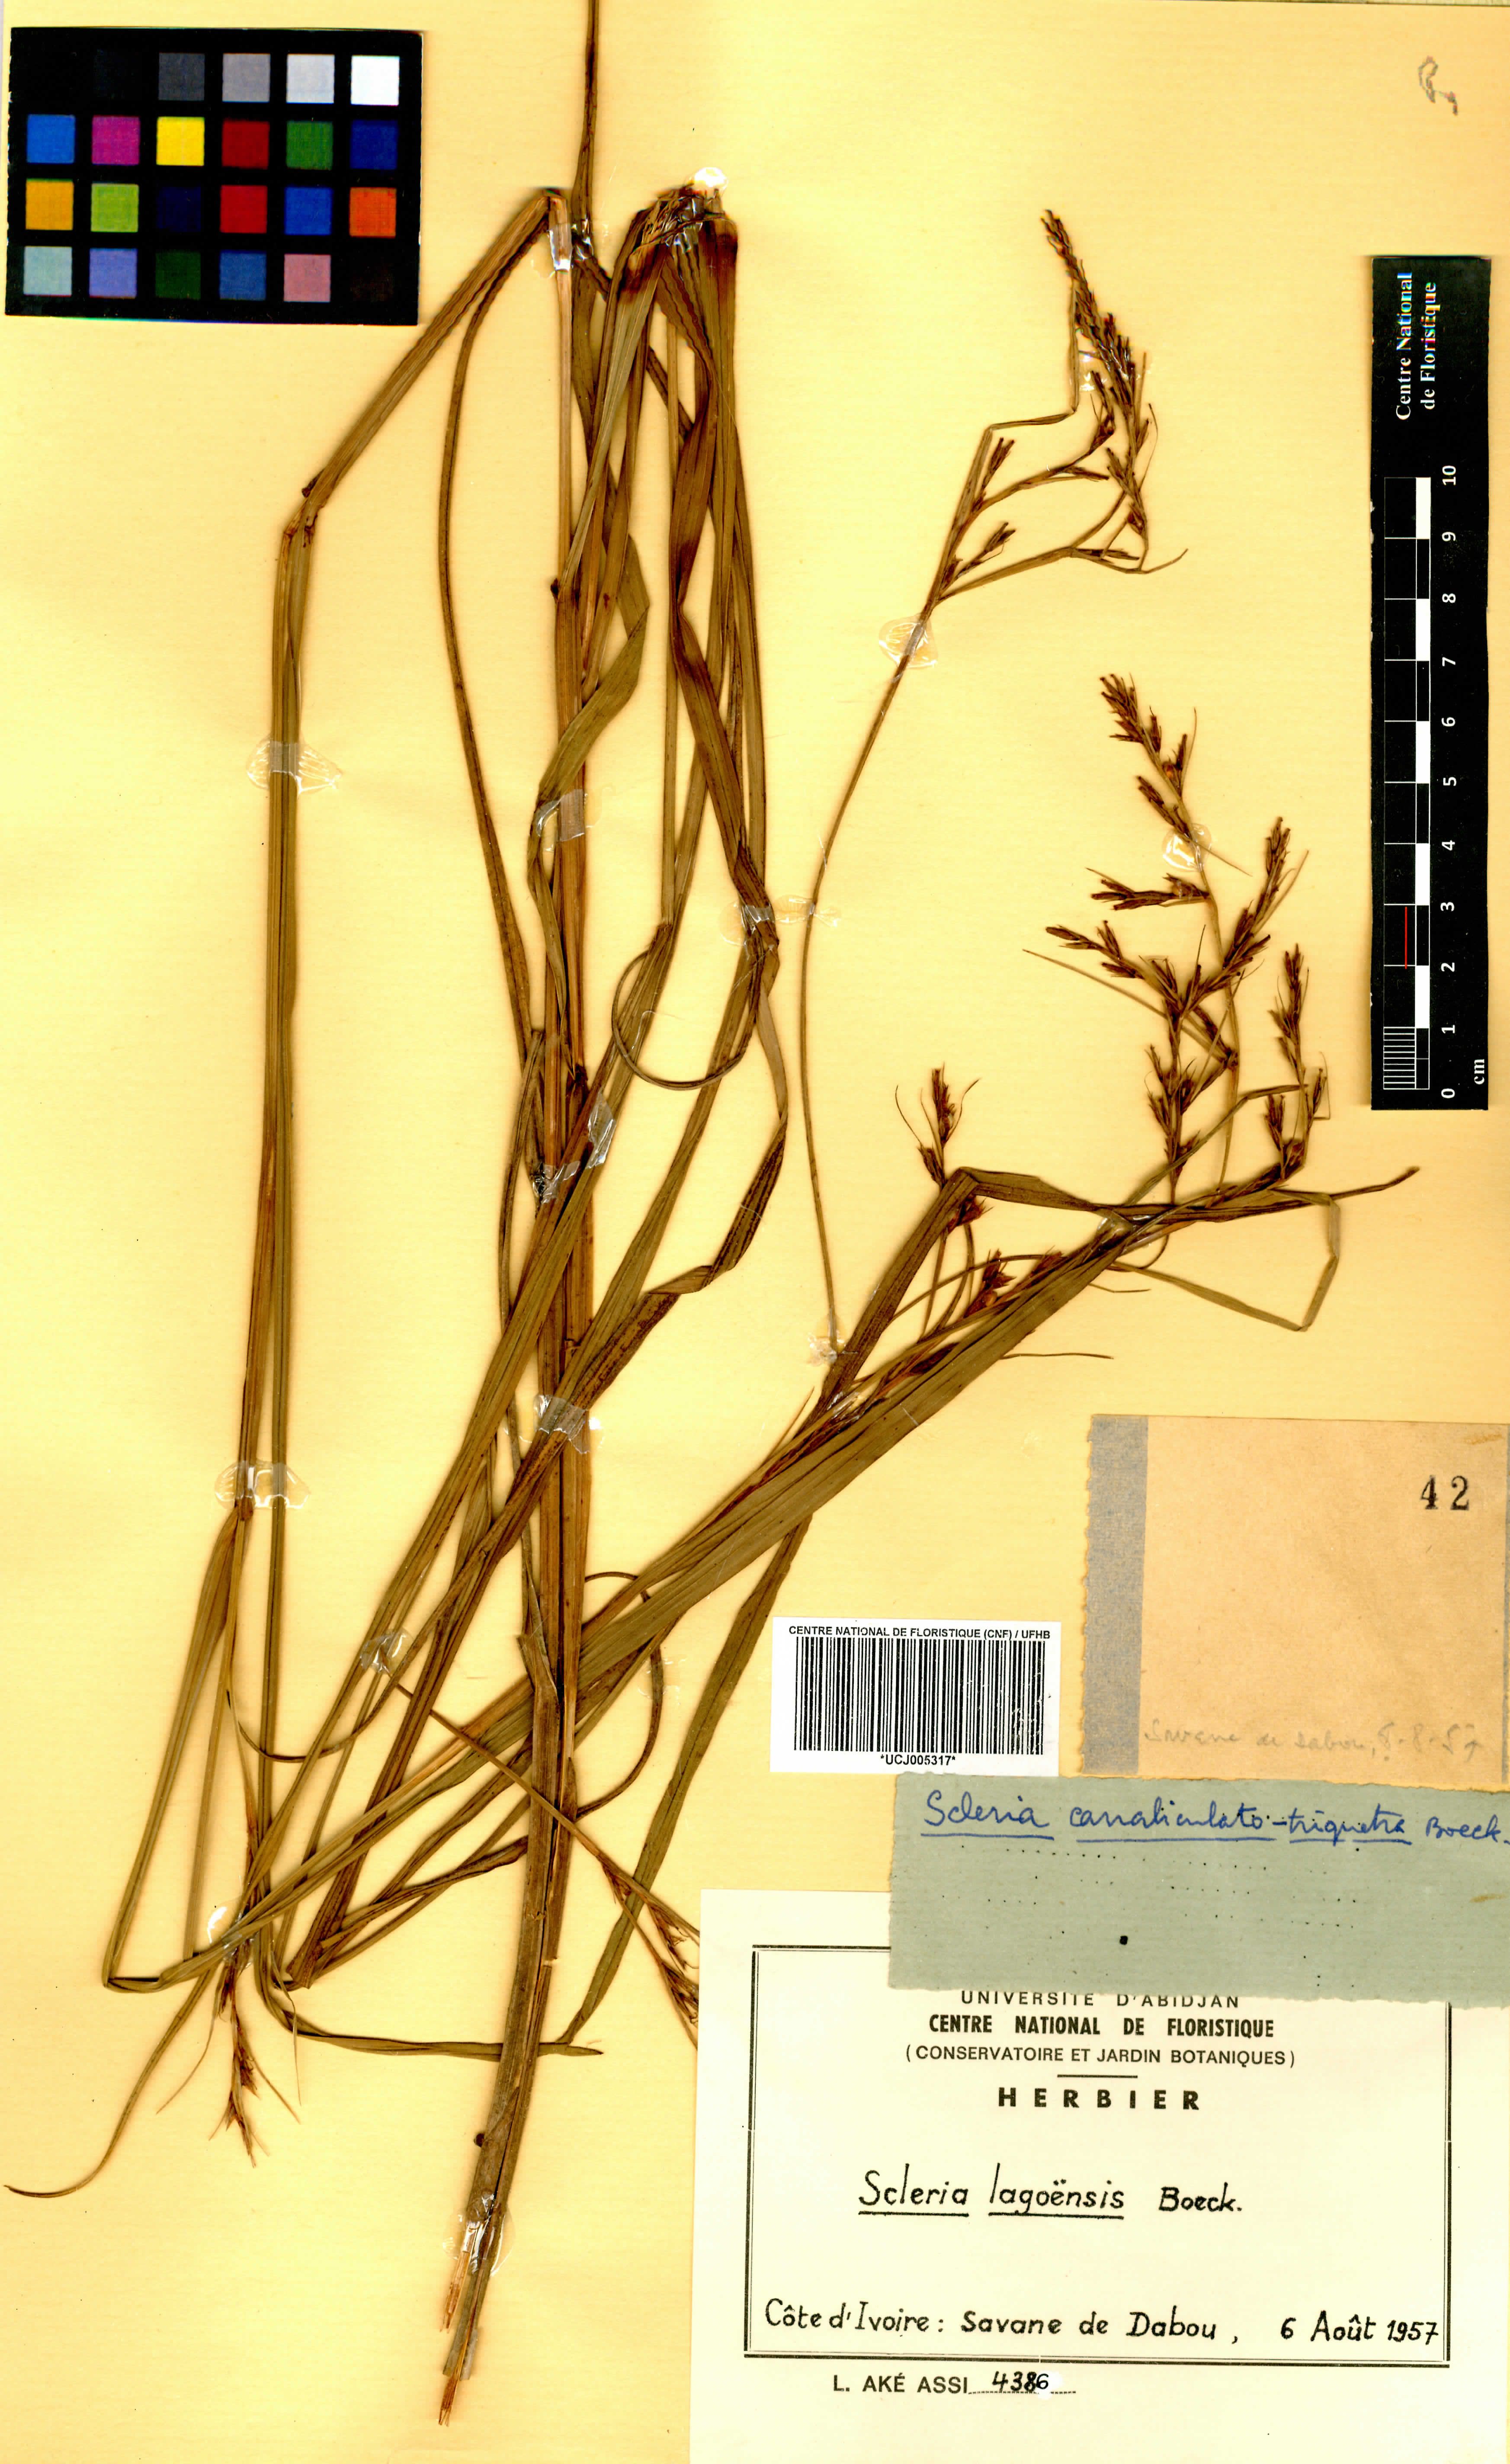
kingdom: Plantae
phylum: Tracheophyta
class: Liliopsida
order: Poales
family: Cyperaceae
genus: Scleria
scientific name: Scleria lagoensis
